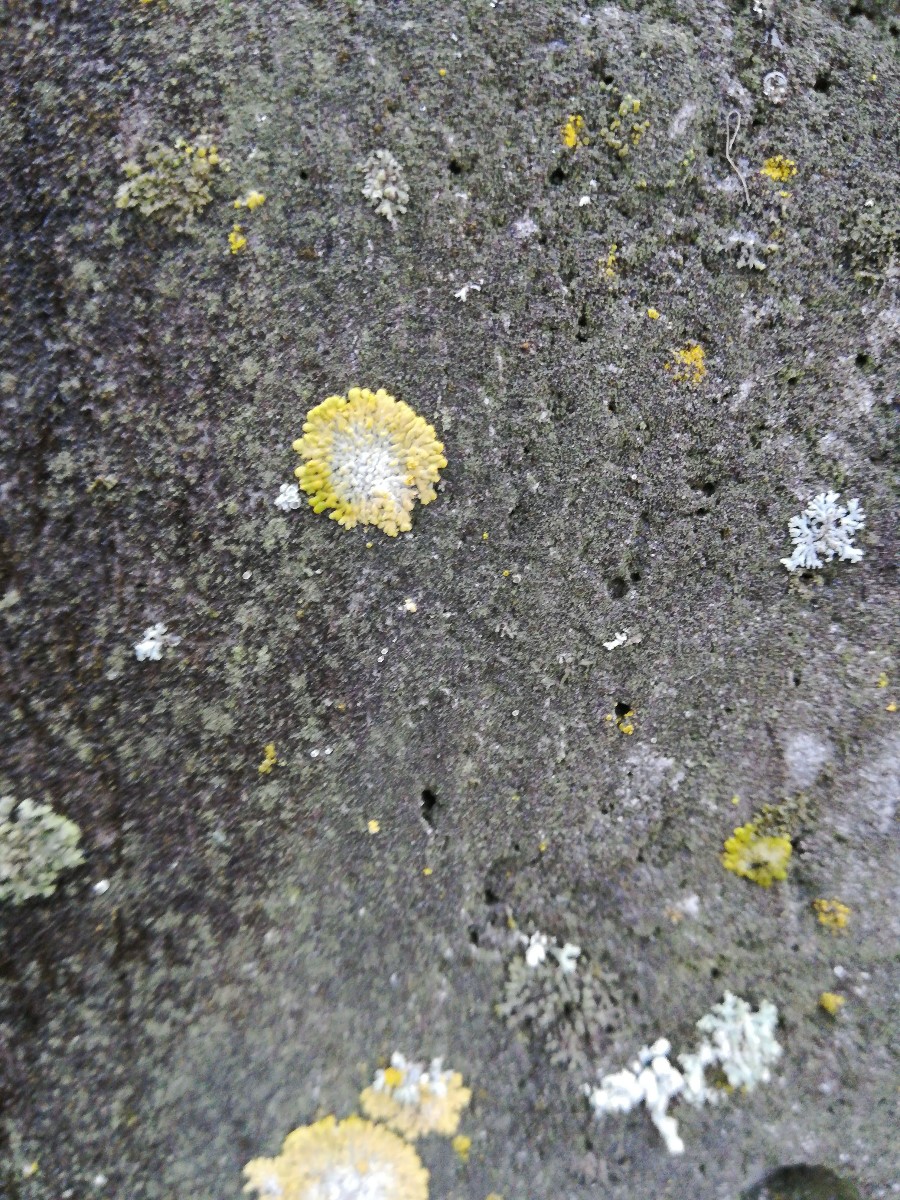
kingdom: Fungi
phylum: Ascomycota
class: Lecanoromycetes
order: Teloschistales
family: Teloschistaceae
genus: Calogaya
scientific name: Calogaya decipiens
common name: knudret orangelav
